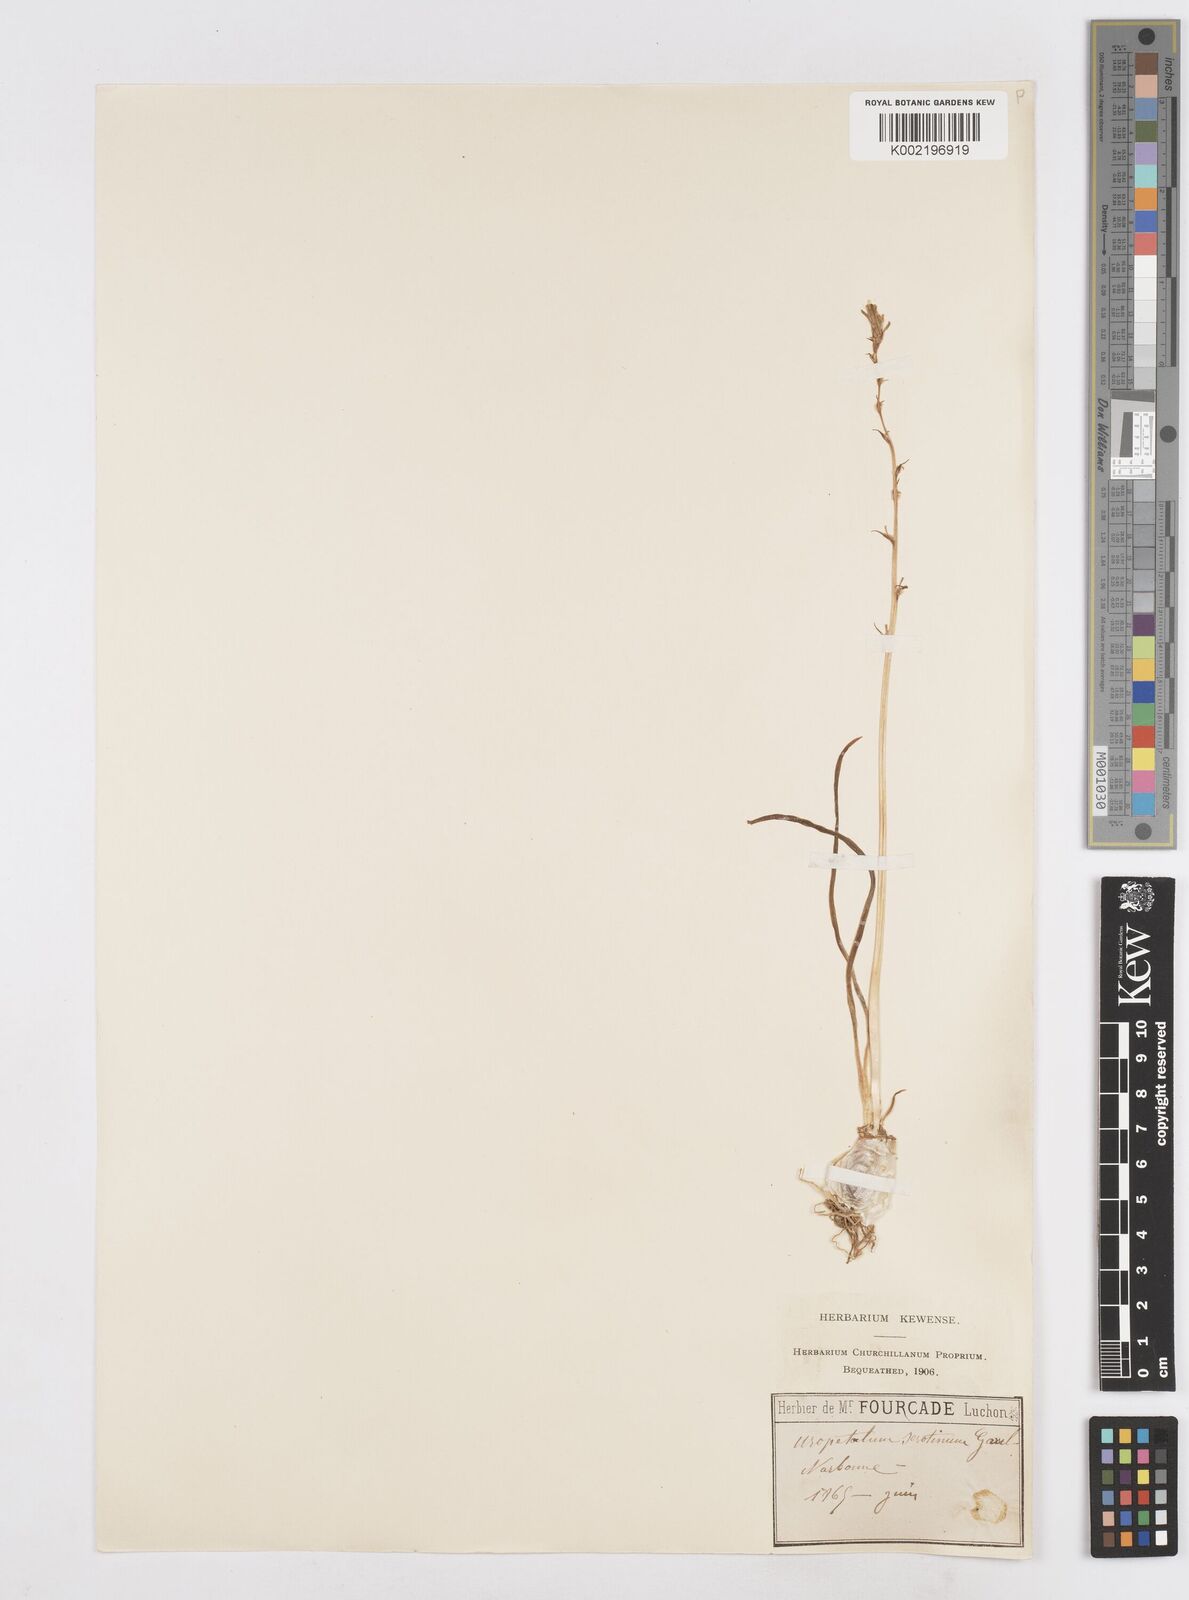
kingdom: Plantae
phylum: Tracheophyta
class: Liliopsida
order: Asparagales
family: Asparagaceae
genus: Dipcadi
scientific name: Dipcadi serotinum
